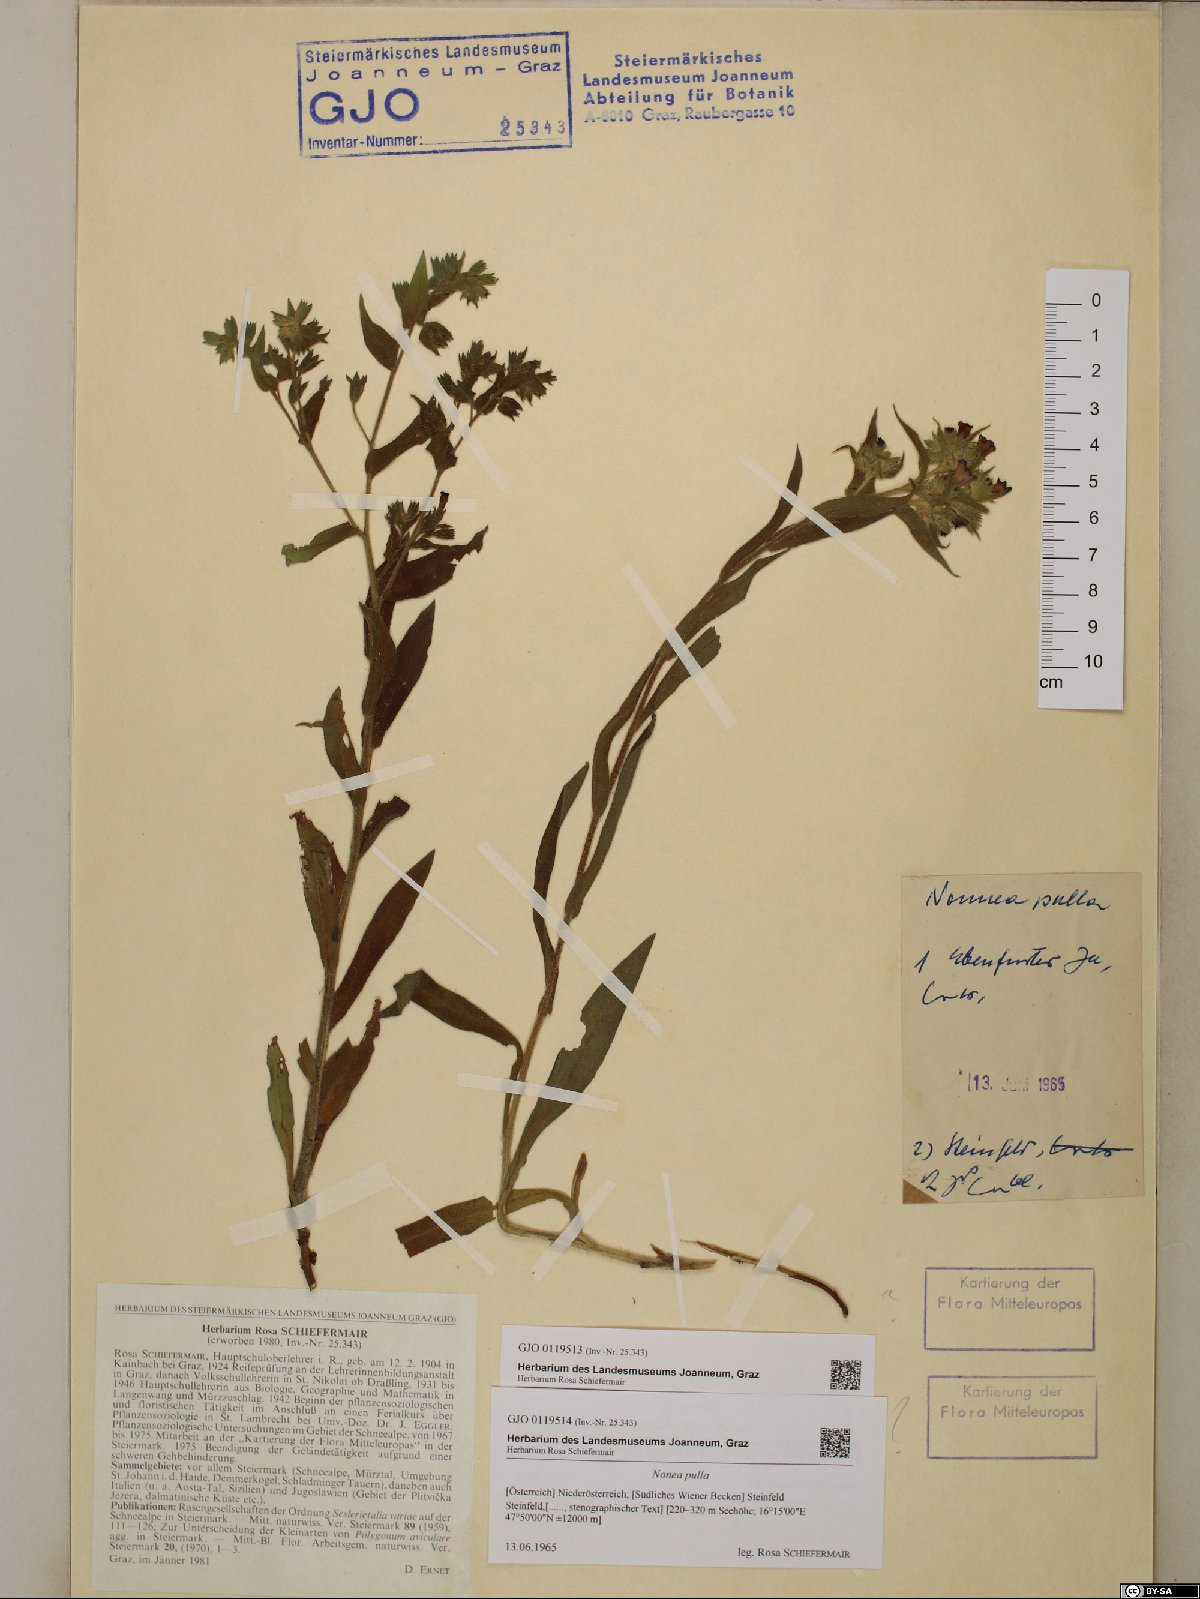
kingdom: Plantae
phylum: Tracheophyta
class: Magnoliopsida
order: Boraginales
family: Boraginaceae
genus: Nonea
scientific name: Nonea pulla
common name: Brown nonea
